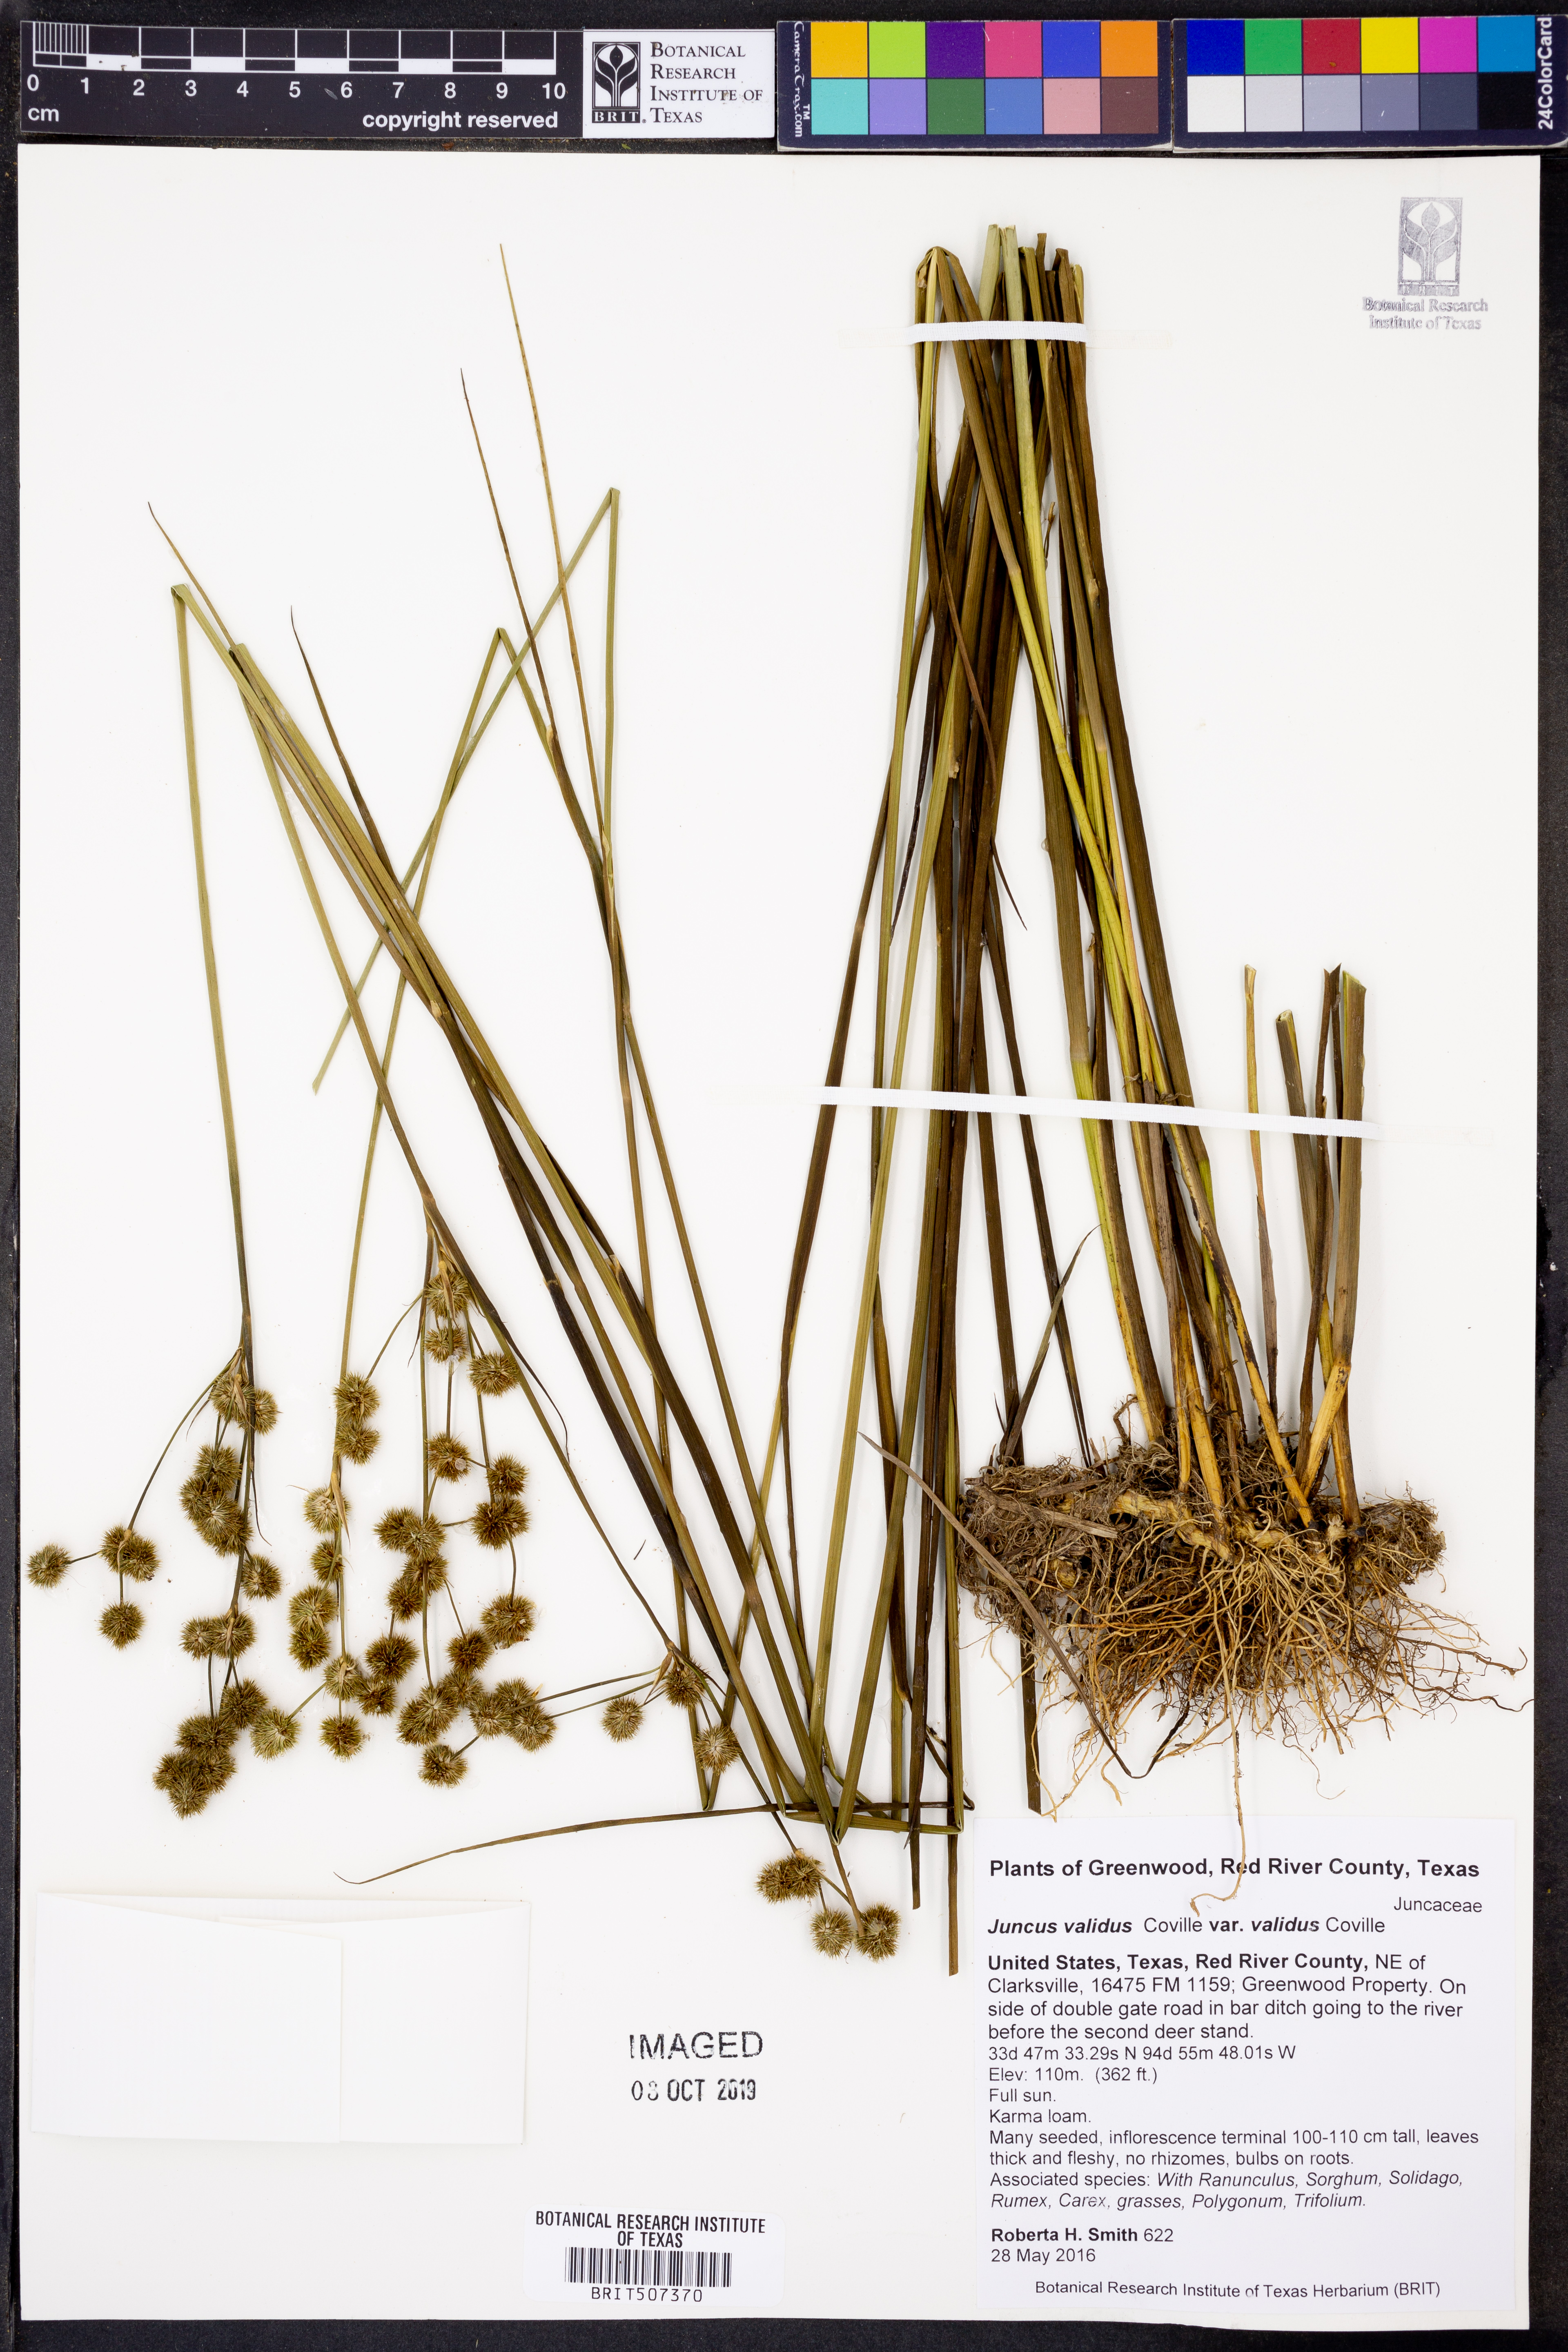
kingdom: Plantae
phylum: Tracheophyta
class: Liliopsida
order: Poales
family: Juncaceae
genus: Juncus
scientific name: Juncus validus
